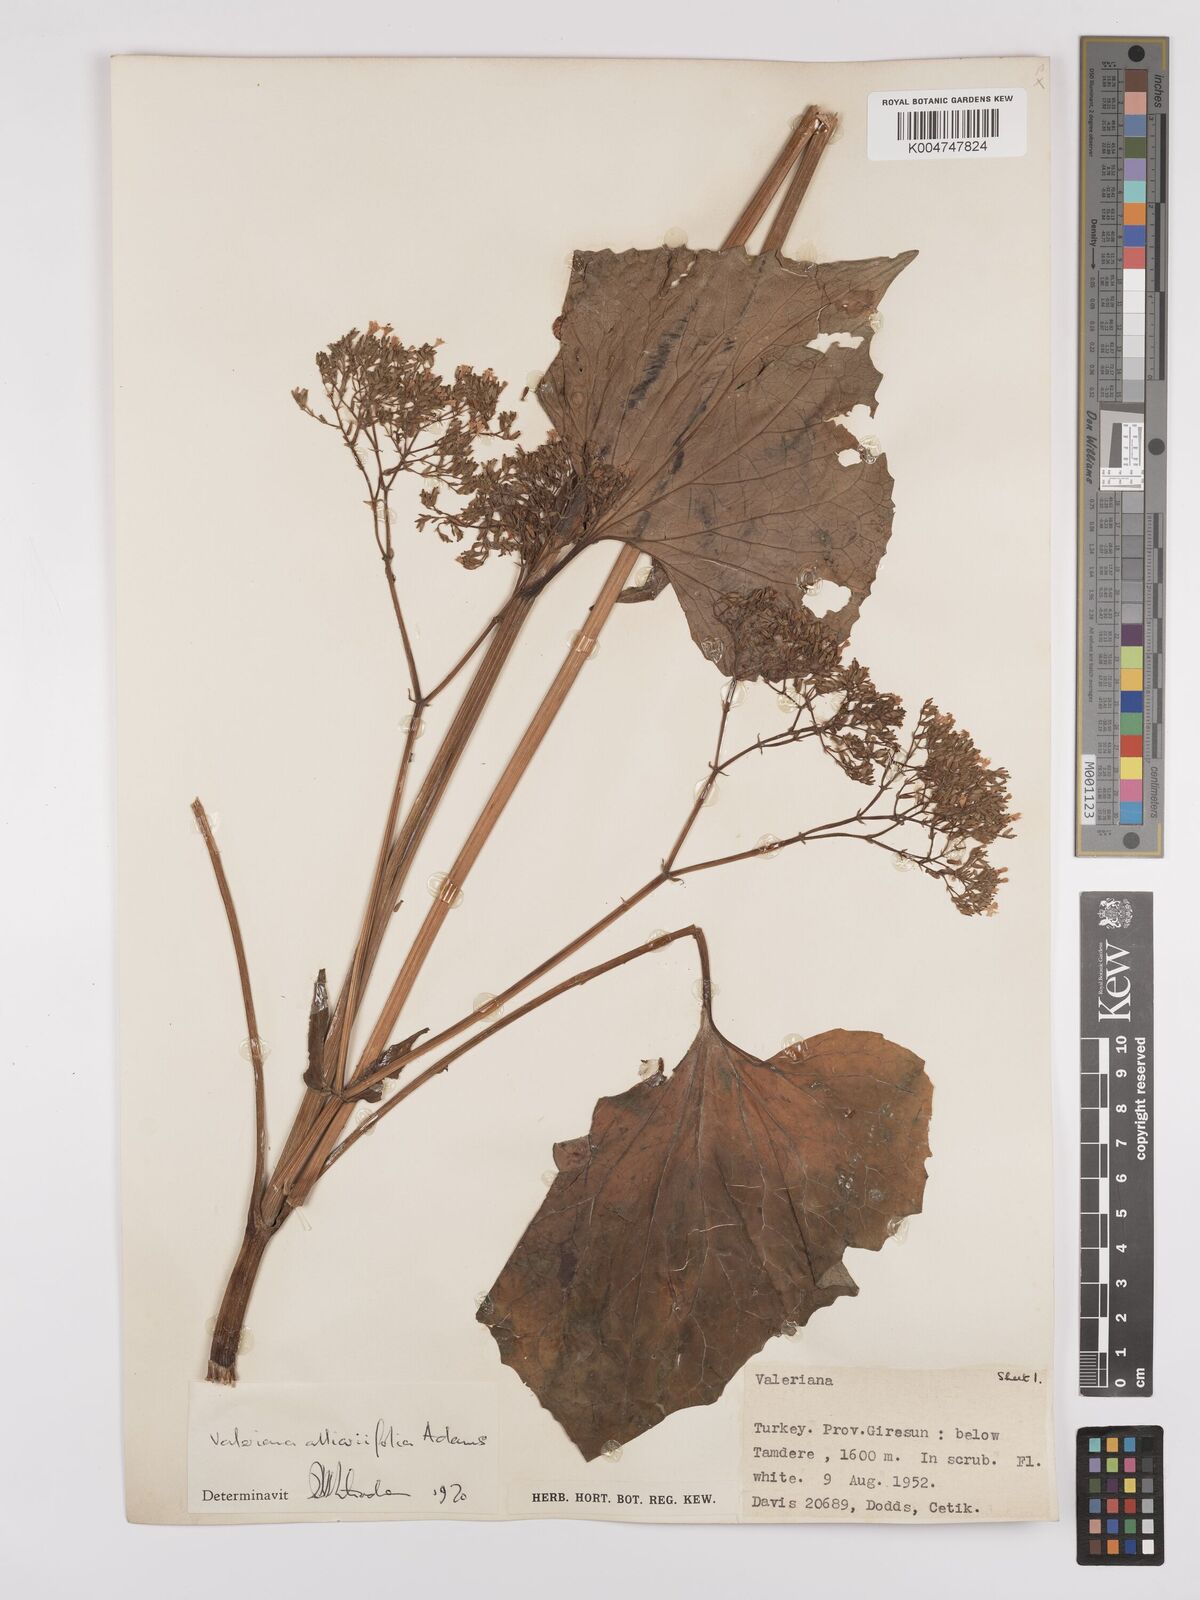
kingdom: Plantae
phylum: Tracheophyta
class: Magnoliopsida
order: Dipsacales
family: Caprifoliaceae
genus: Valeriana
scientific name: Valeriana
